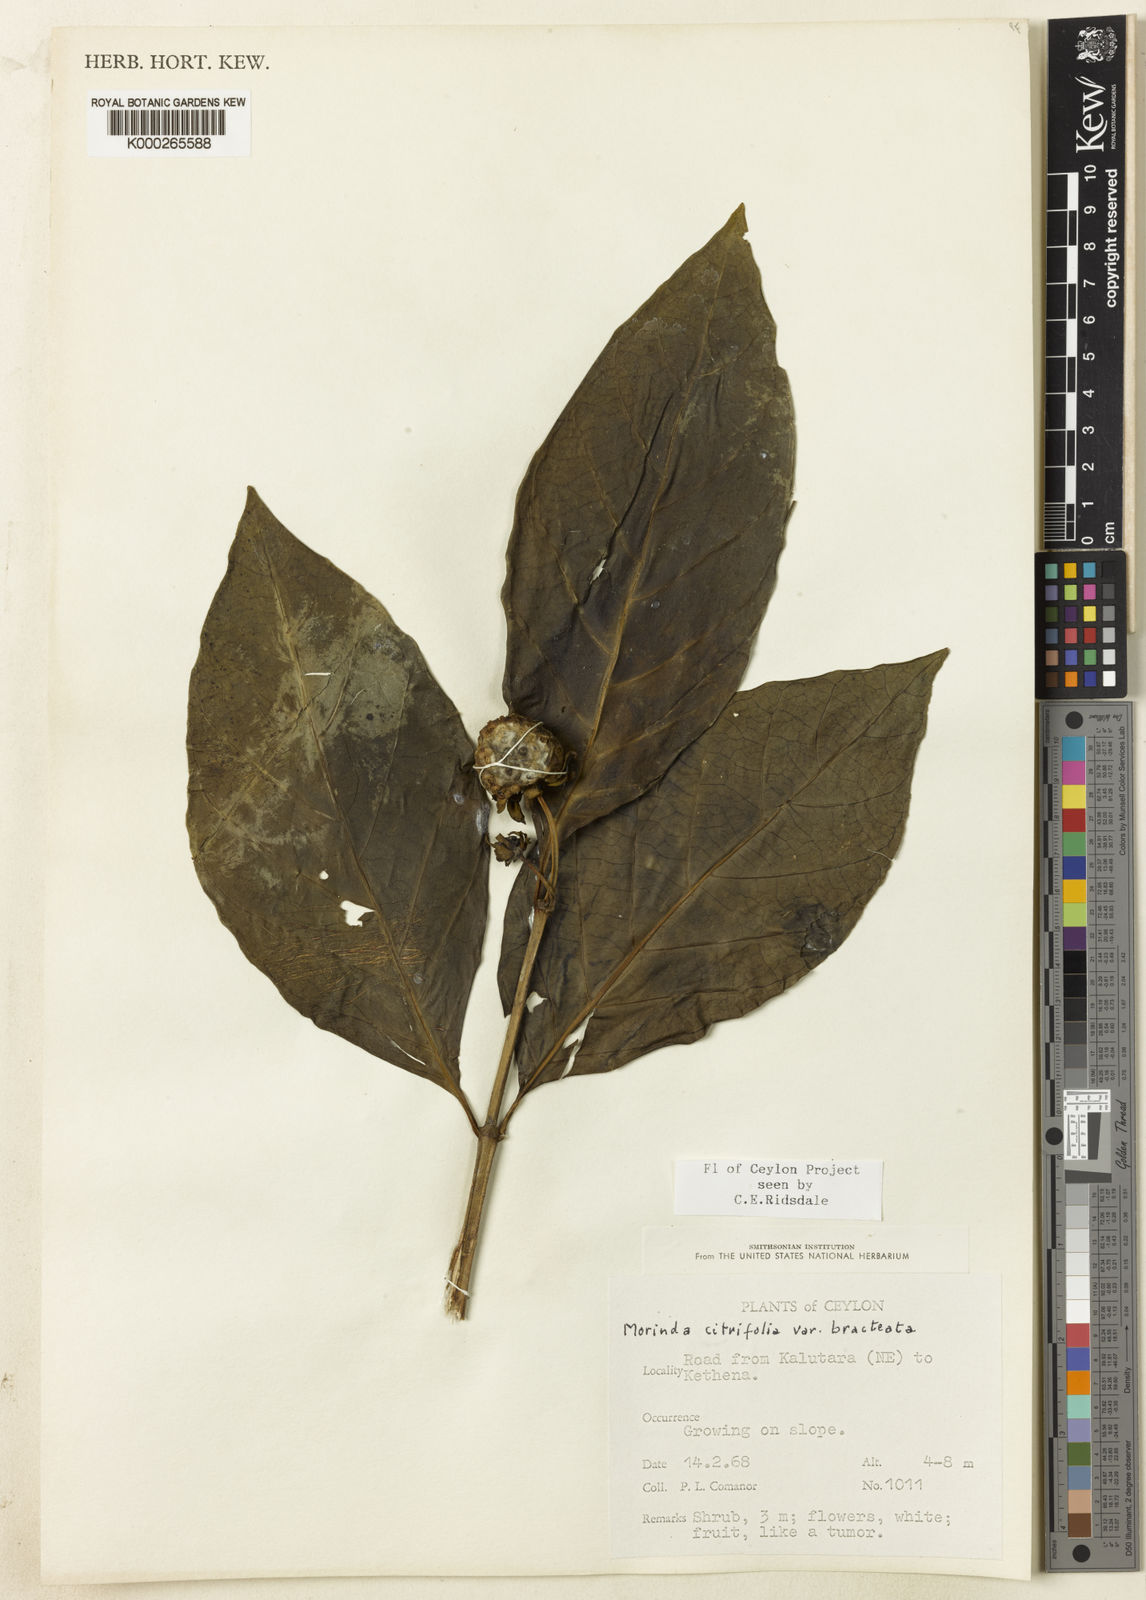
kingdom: Plantae
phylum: Tracheophyta
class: Magnoliopsida
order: Gentianales
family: Rubiaceae
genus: Morinda
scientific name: Morinda
